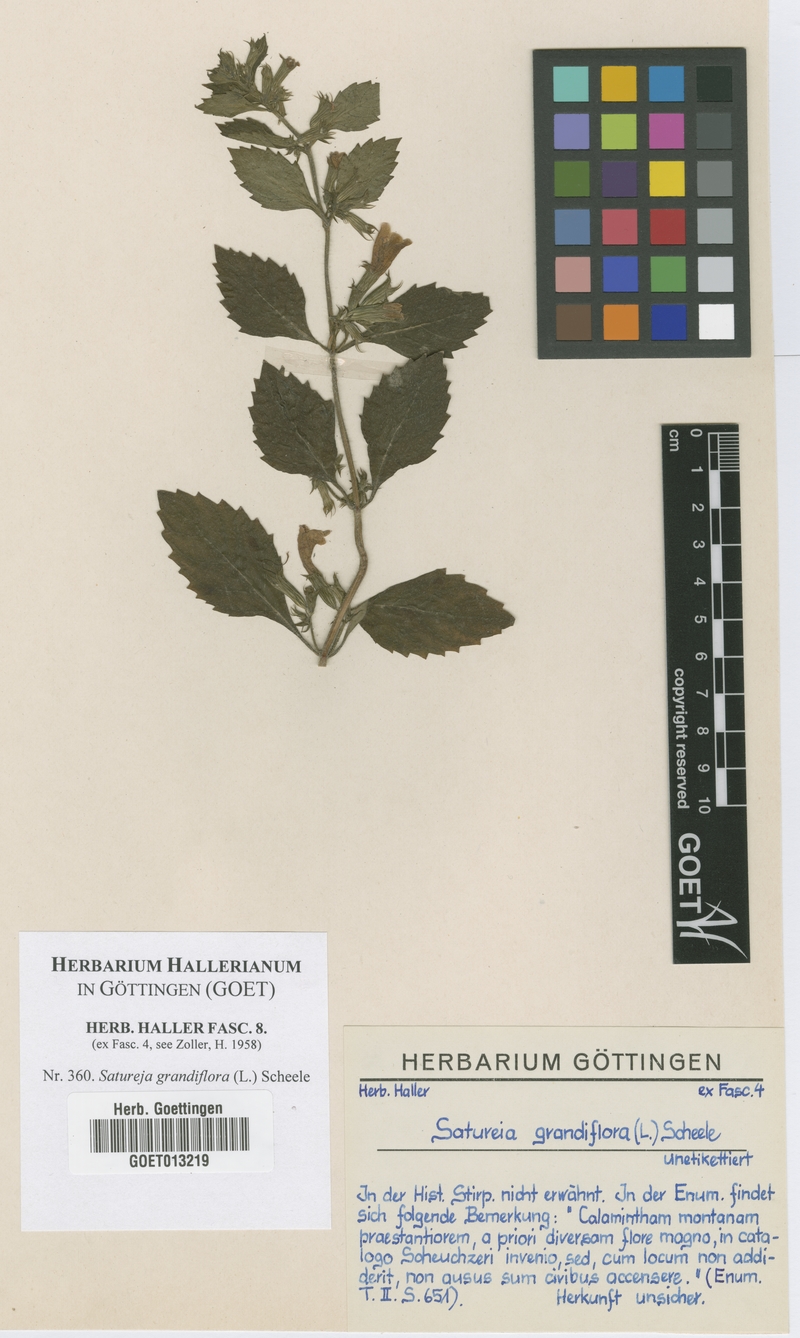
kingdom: Plantae
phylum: Tracheophyta
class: Magnoliopsida
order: Lamiales
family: Lamiaceae
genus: Clinopodium
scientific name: Clinopodium grandiflorum
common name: Greater calamint
